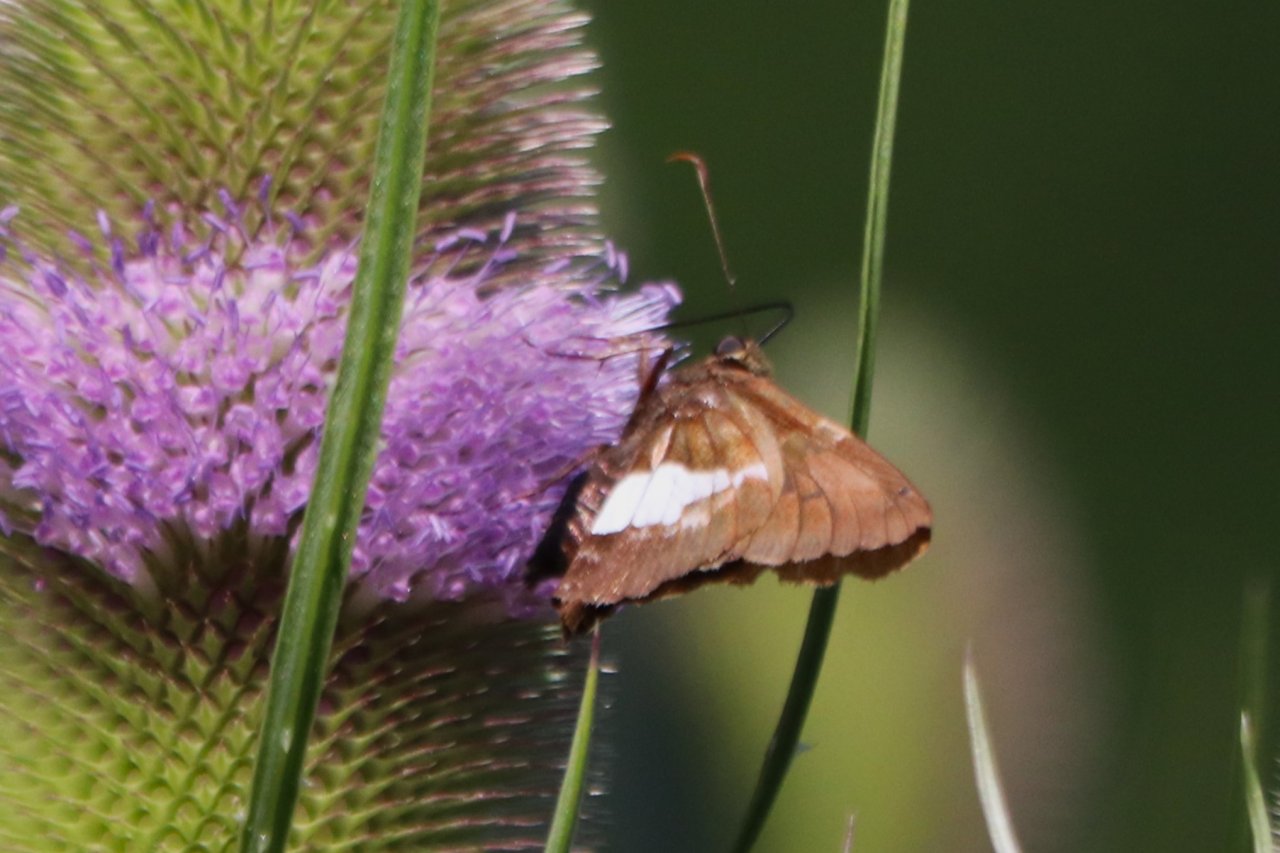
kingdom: Animalia
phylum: Arthropoda
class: Insecta
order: Lepidoptera
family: Hesperiidae
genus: Epargyreus
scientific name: Epargyreus clarus
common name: Silver-spotted Skipper
